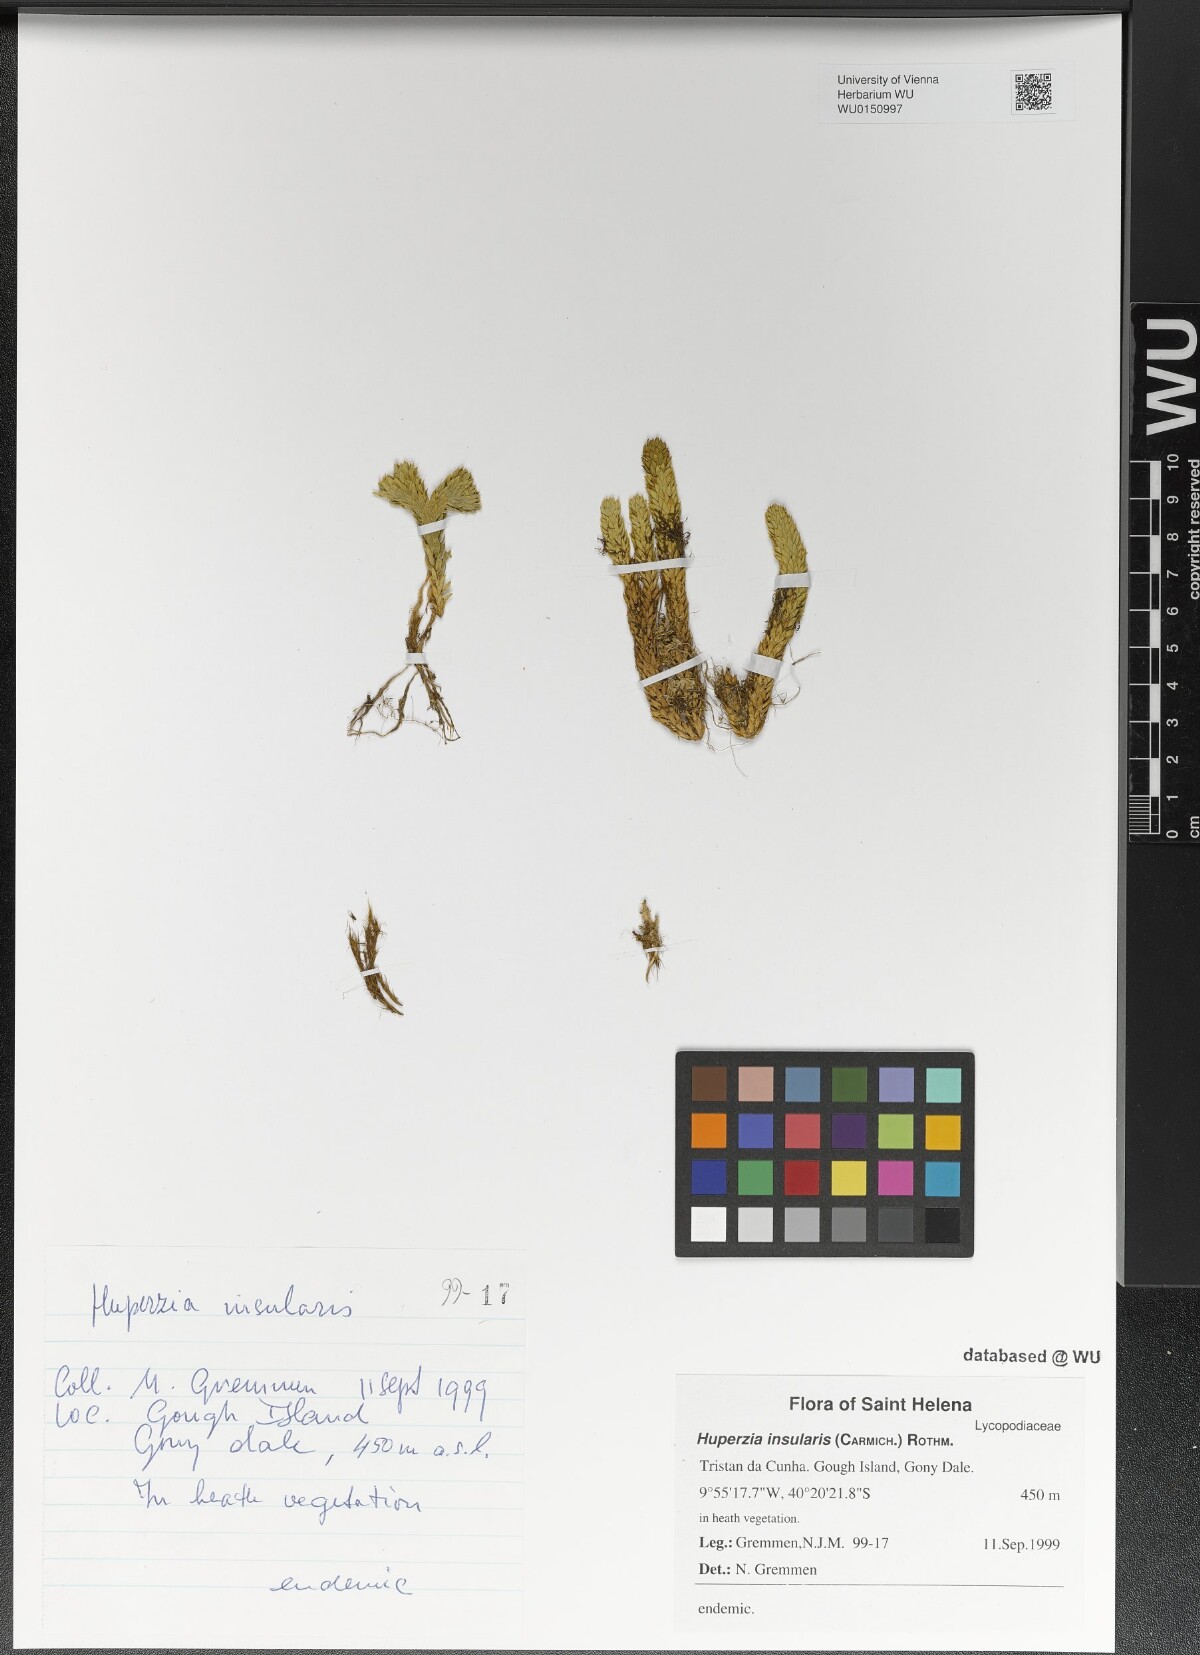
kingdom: Plantae
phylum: Tracheophyta
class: Lycopodiopsida
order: Lycopodiales
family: Lycopodiaceae
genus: Phlegmariurus
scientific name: Phlegmariurus insularis
